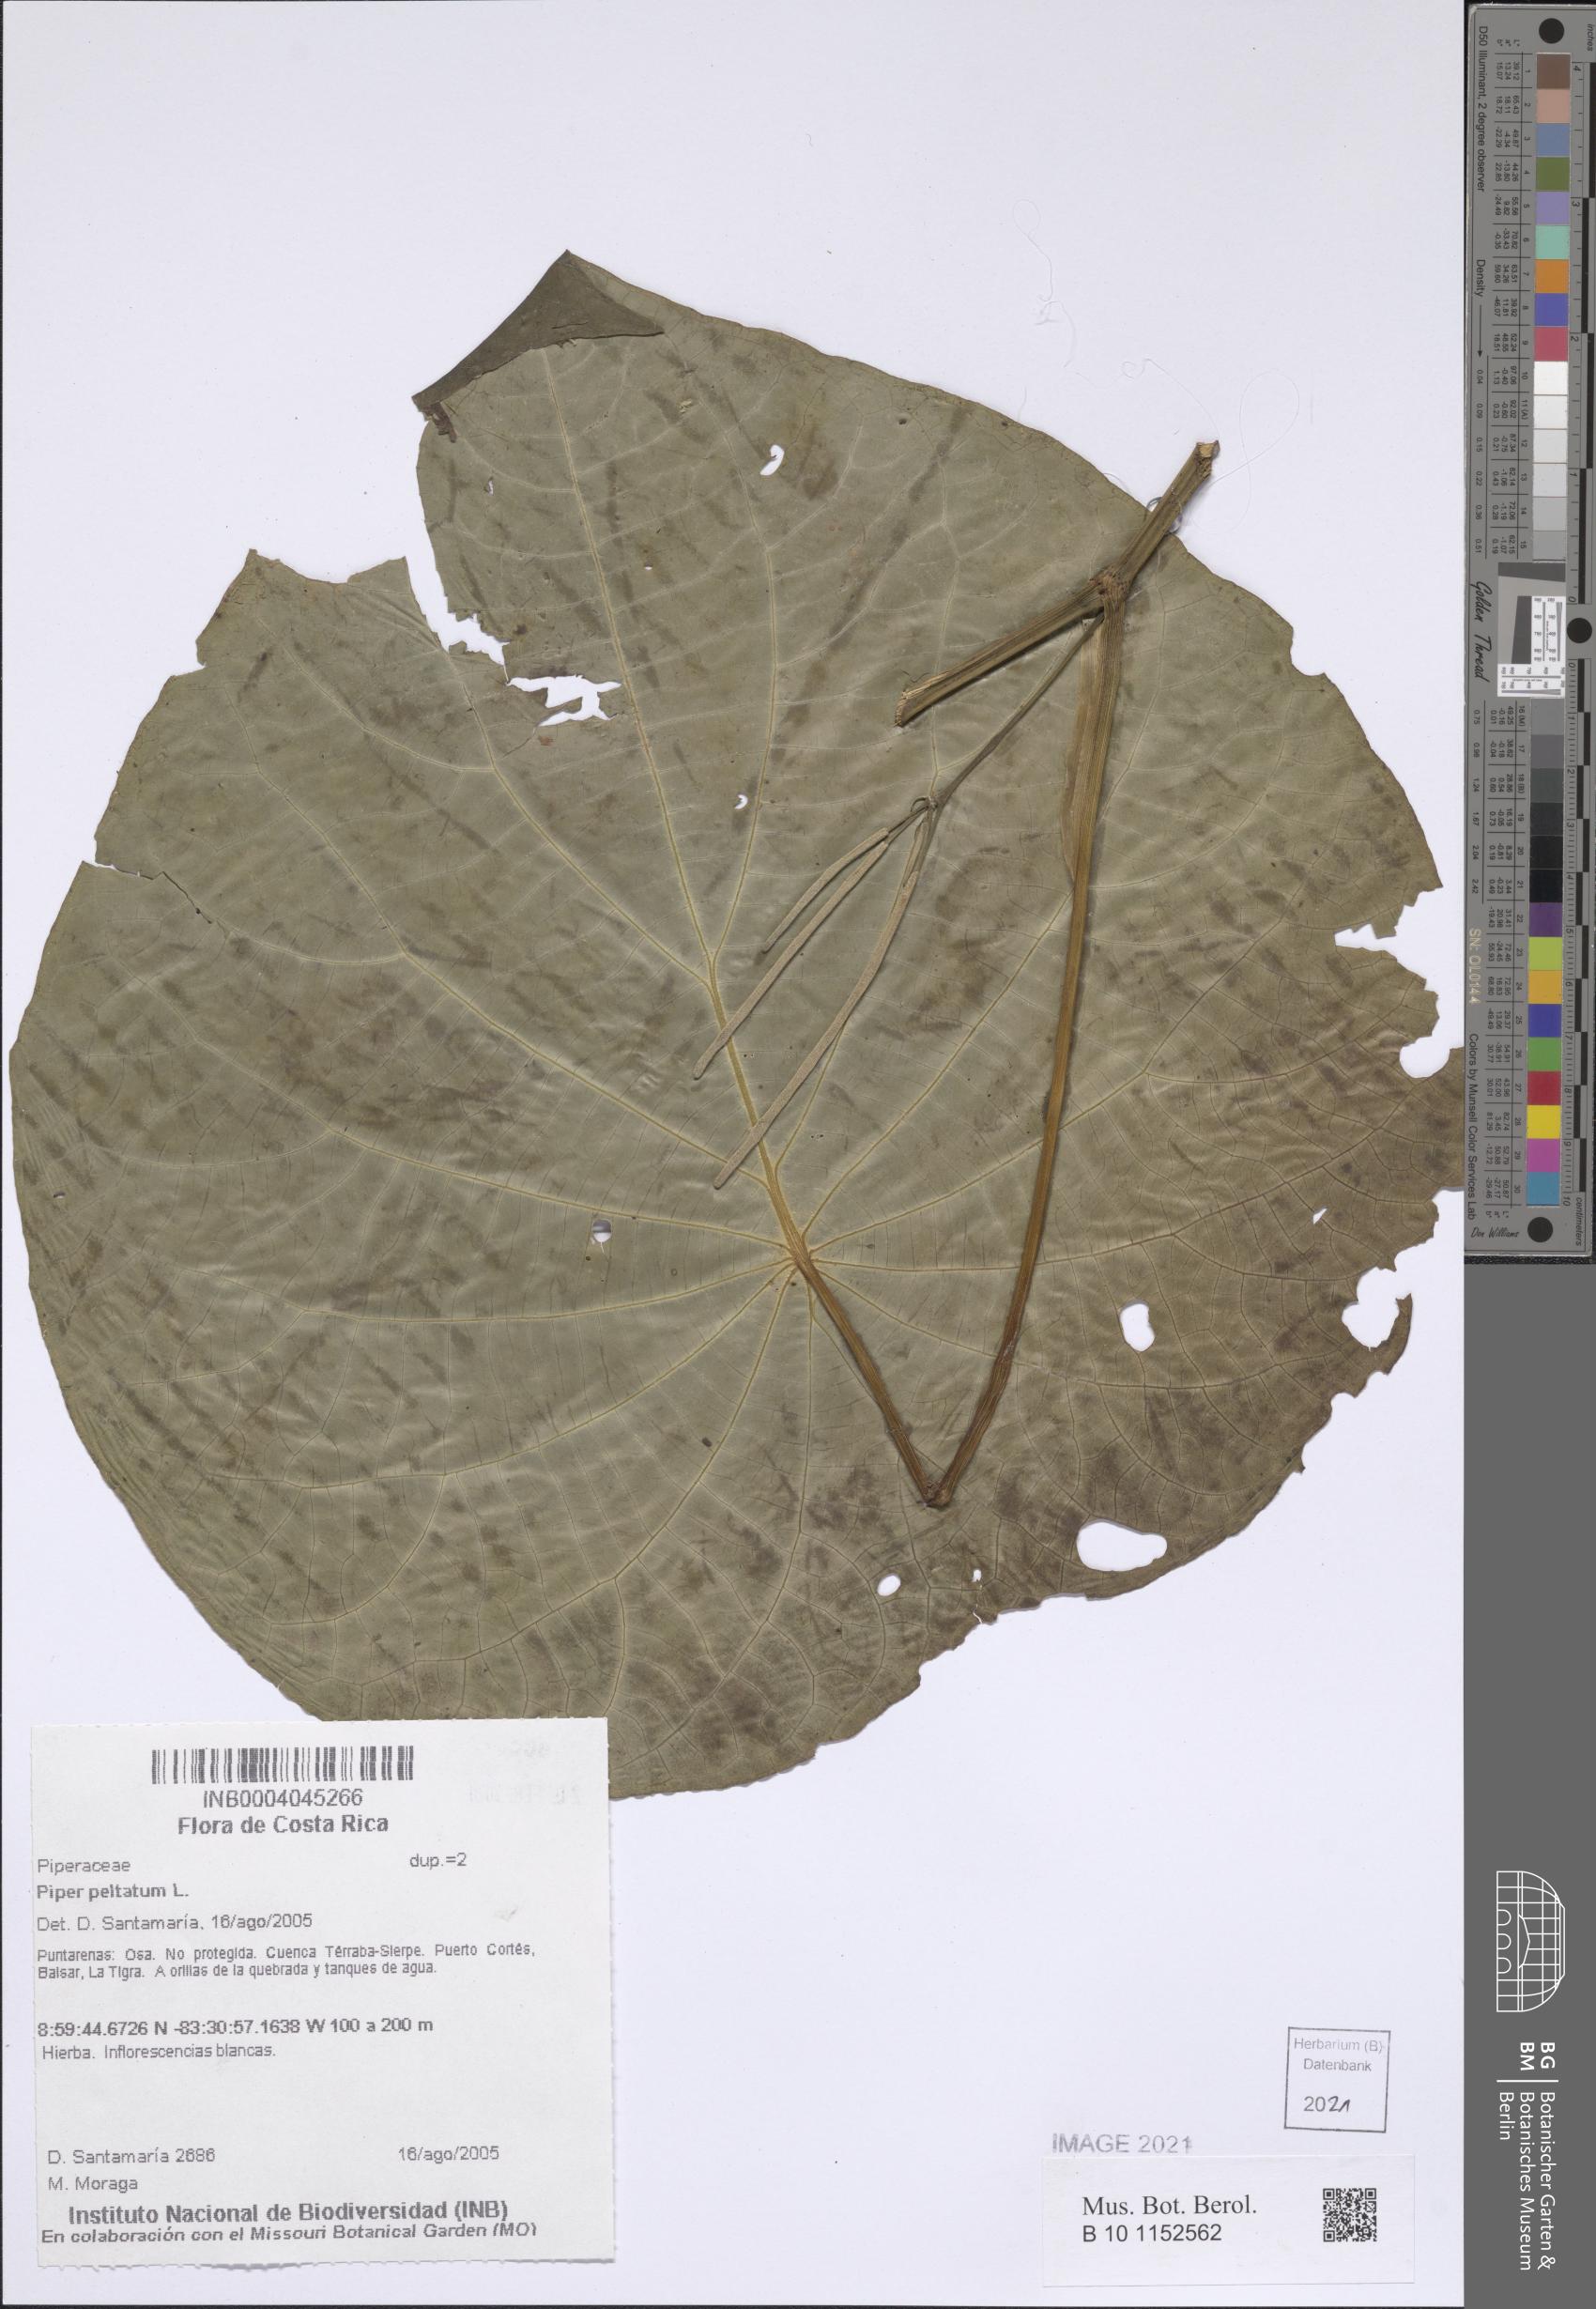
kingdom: Plantae
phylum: Tracheophyta
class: Magnoliopsida
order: Piperales
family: Piperaceae
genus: Piper
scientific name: Piper peltatum
